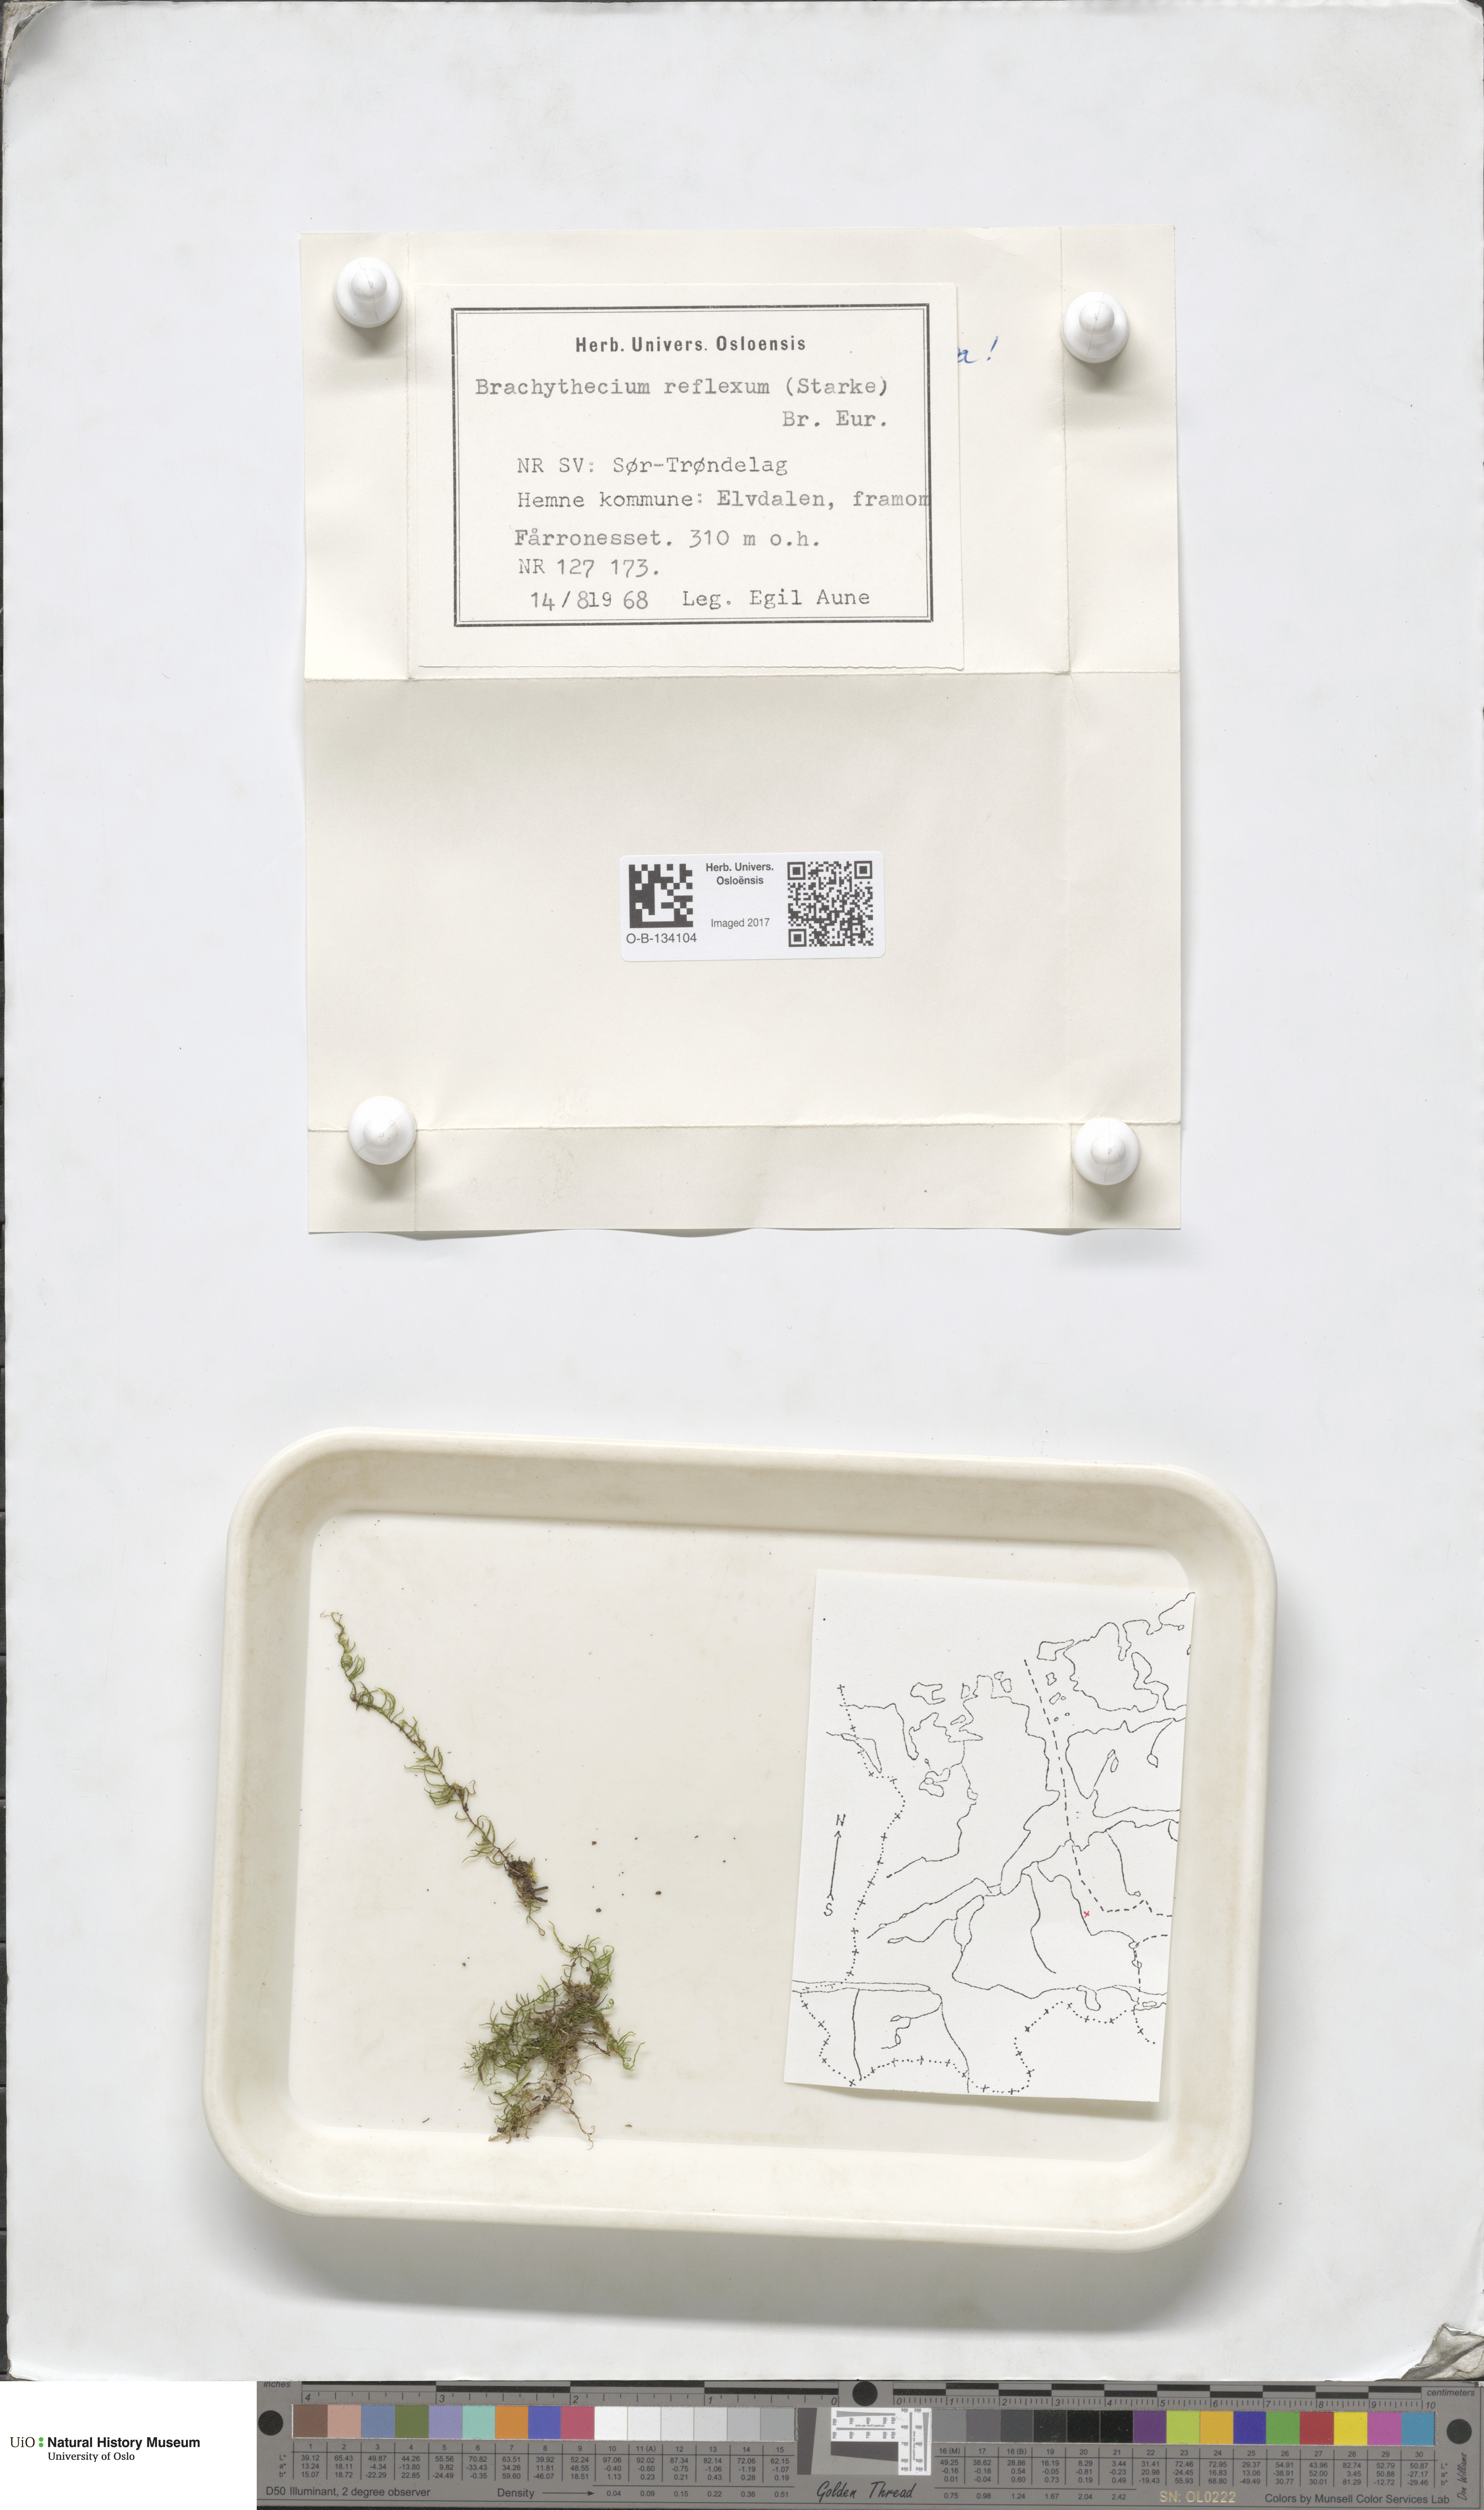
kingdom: Plantae
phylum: Bryophyta
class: Bryopsida
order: Hypnales
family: Brachytheciaceae
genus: Sciuro-hypnum
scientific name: Sciuro-hypnum reflexum
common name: Reflexed feather-moss
